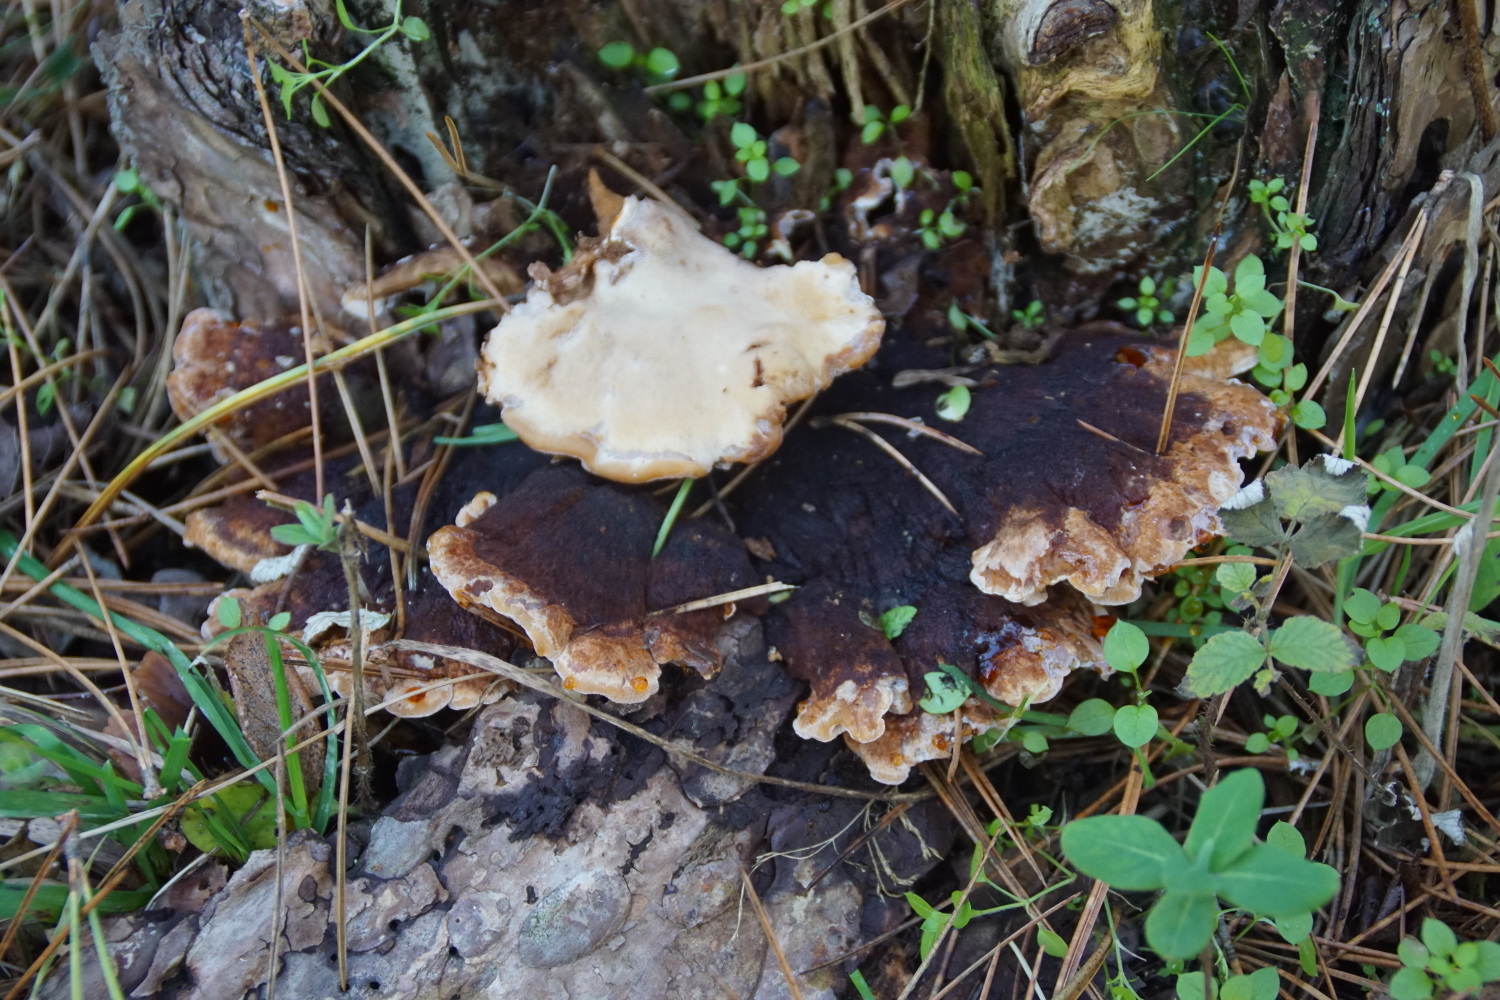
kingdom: Fungi
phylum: Basidiomycota
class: Agaricomycetes
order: Polyporales
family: Ischnodermataceae
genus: Ischnoderma
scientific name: Ischnoderma benzoinum
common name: gran-tjæreporesvamp
